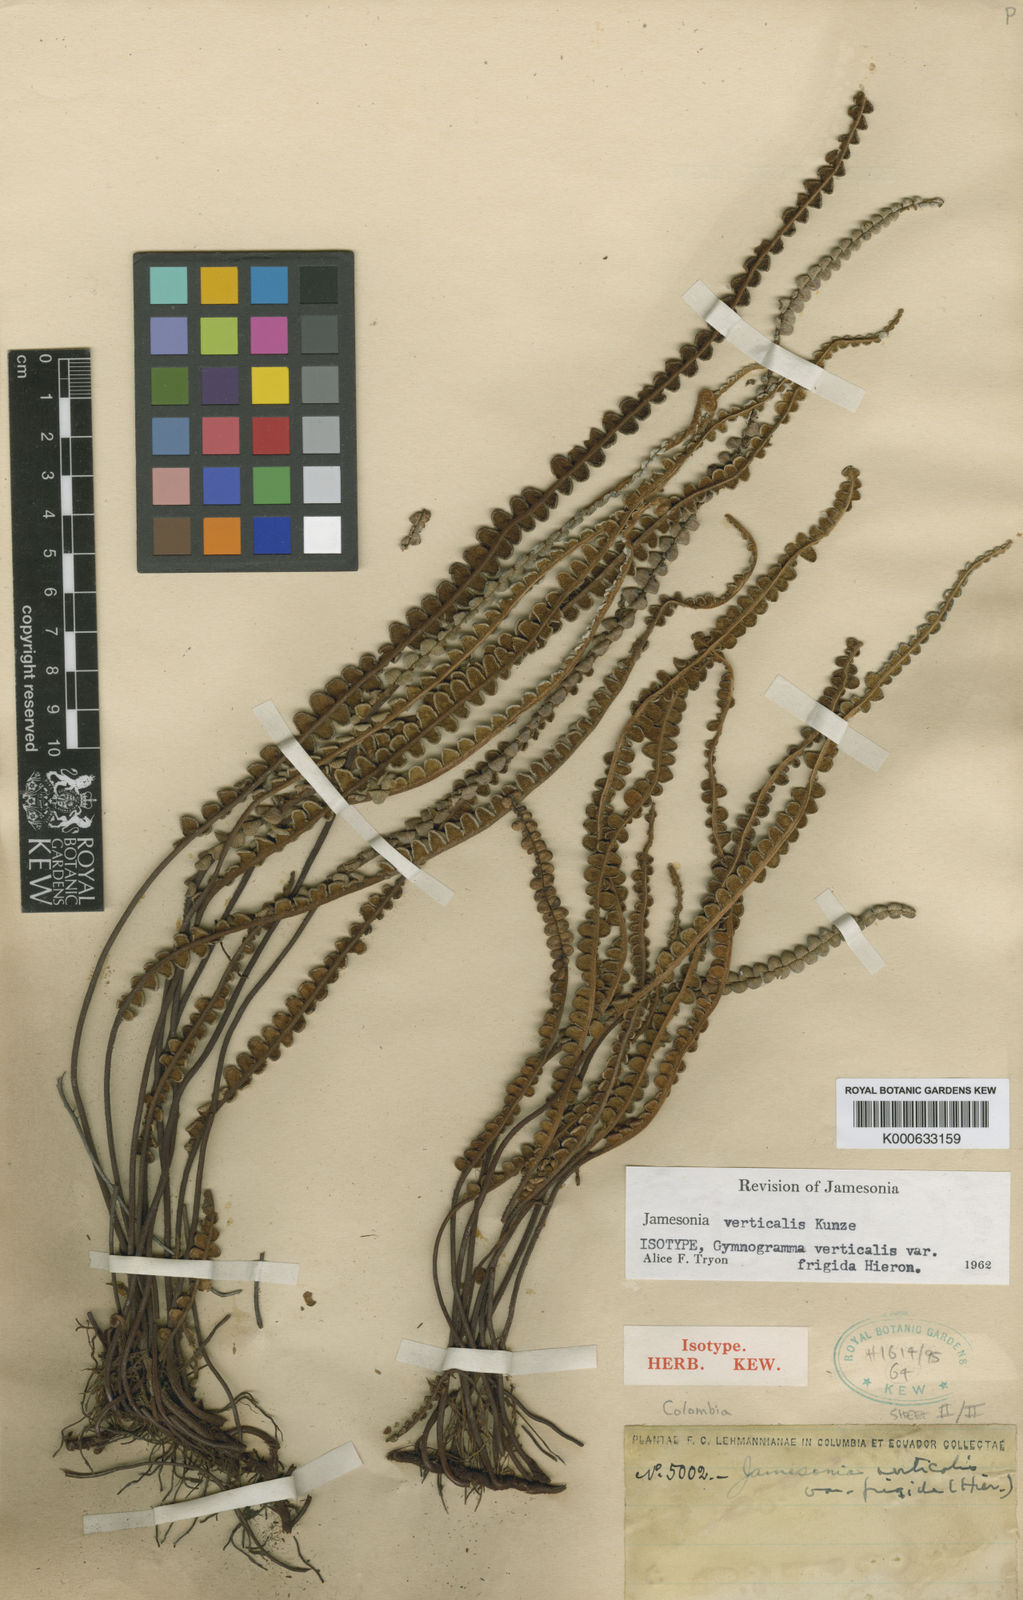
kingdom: Plantae
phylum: Tracheophyta
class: Polypodiopsida
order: Polypodiales
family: Pteridaceae
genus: Jamesonia
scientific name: Jamesonia verticalis
